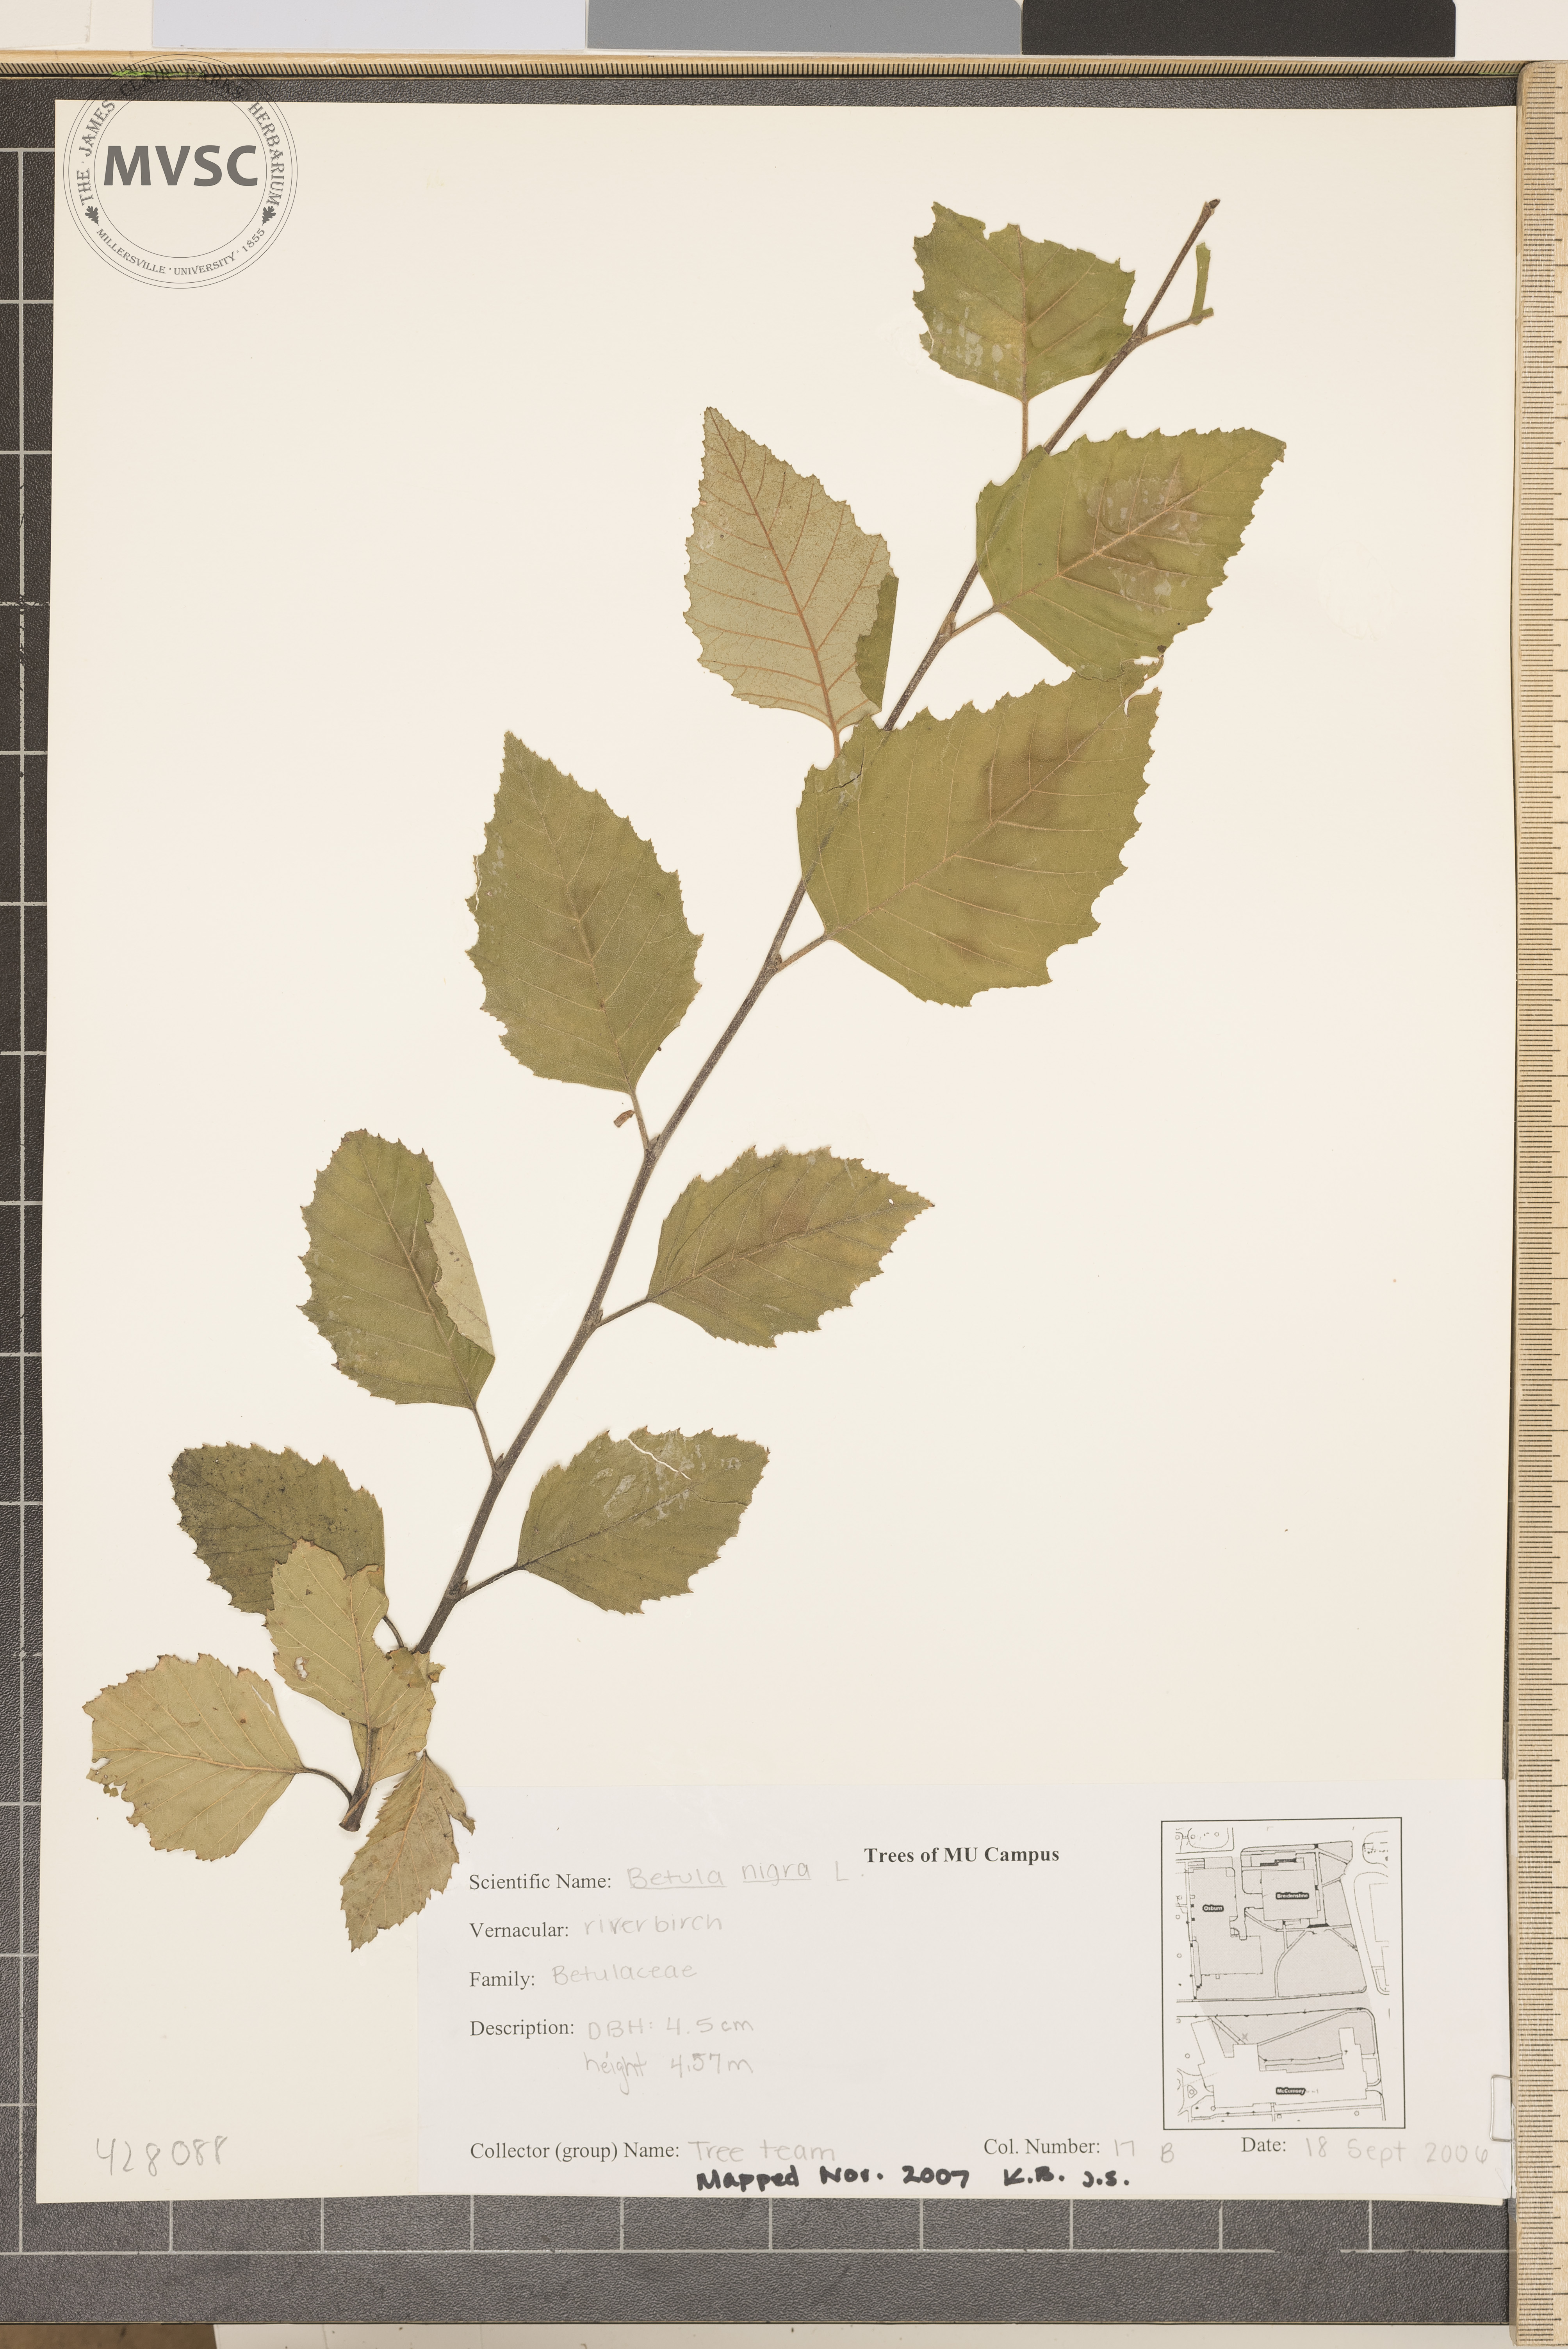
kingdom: Plantae
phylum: Tracheophyta
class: Magnoliopsida
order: Fagales
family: Betulaceae
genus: Betula
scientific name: Betula nigra
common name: River birch
